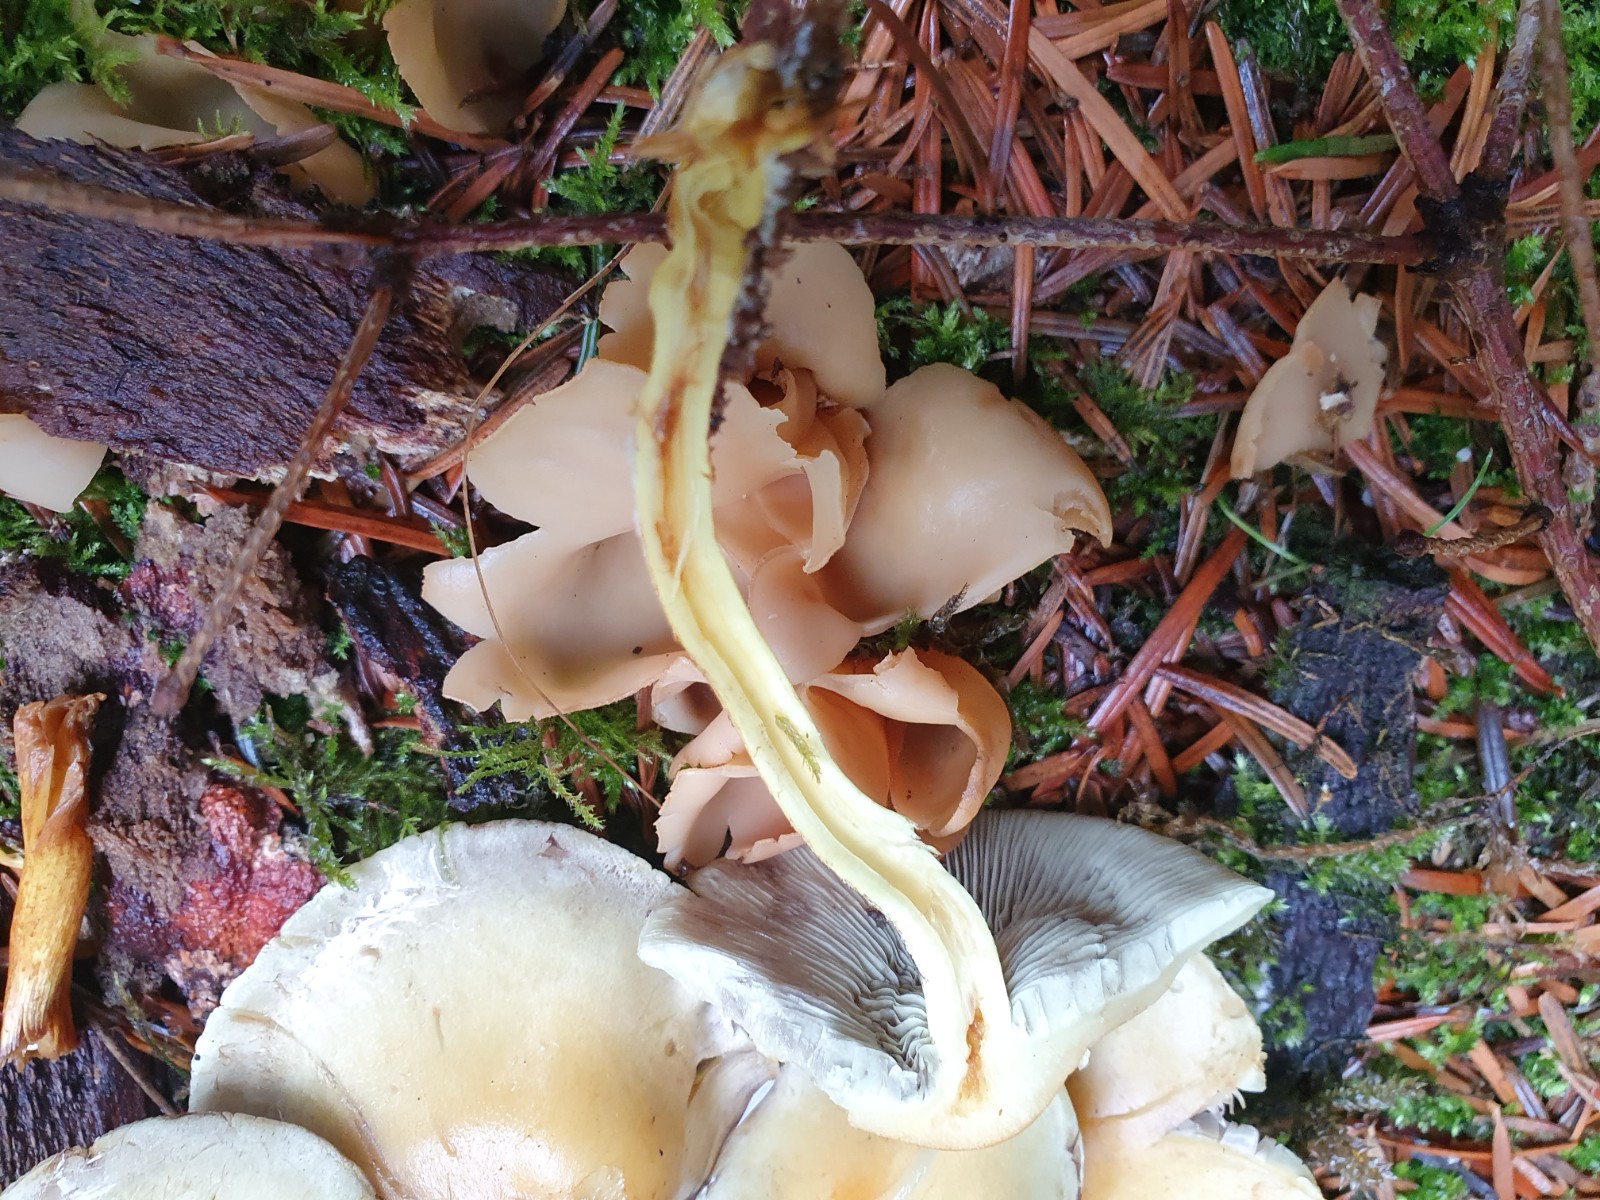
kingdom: Fungi
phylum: Basidiomycota
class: Agaricomycetes
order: Agaricales
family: Strophariaceae
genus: Hypholoma
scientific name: Hypholoma capnoides
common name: gran-svovlhat
